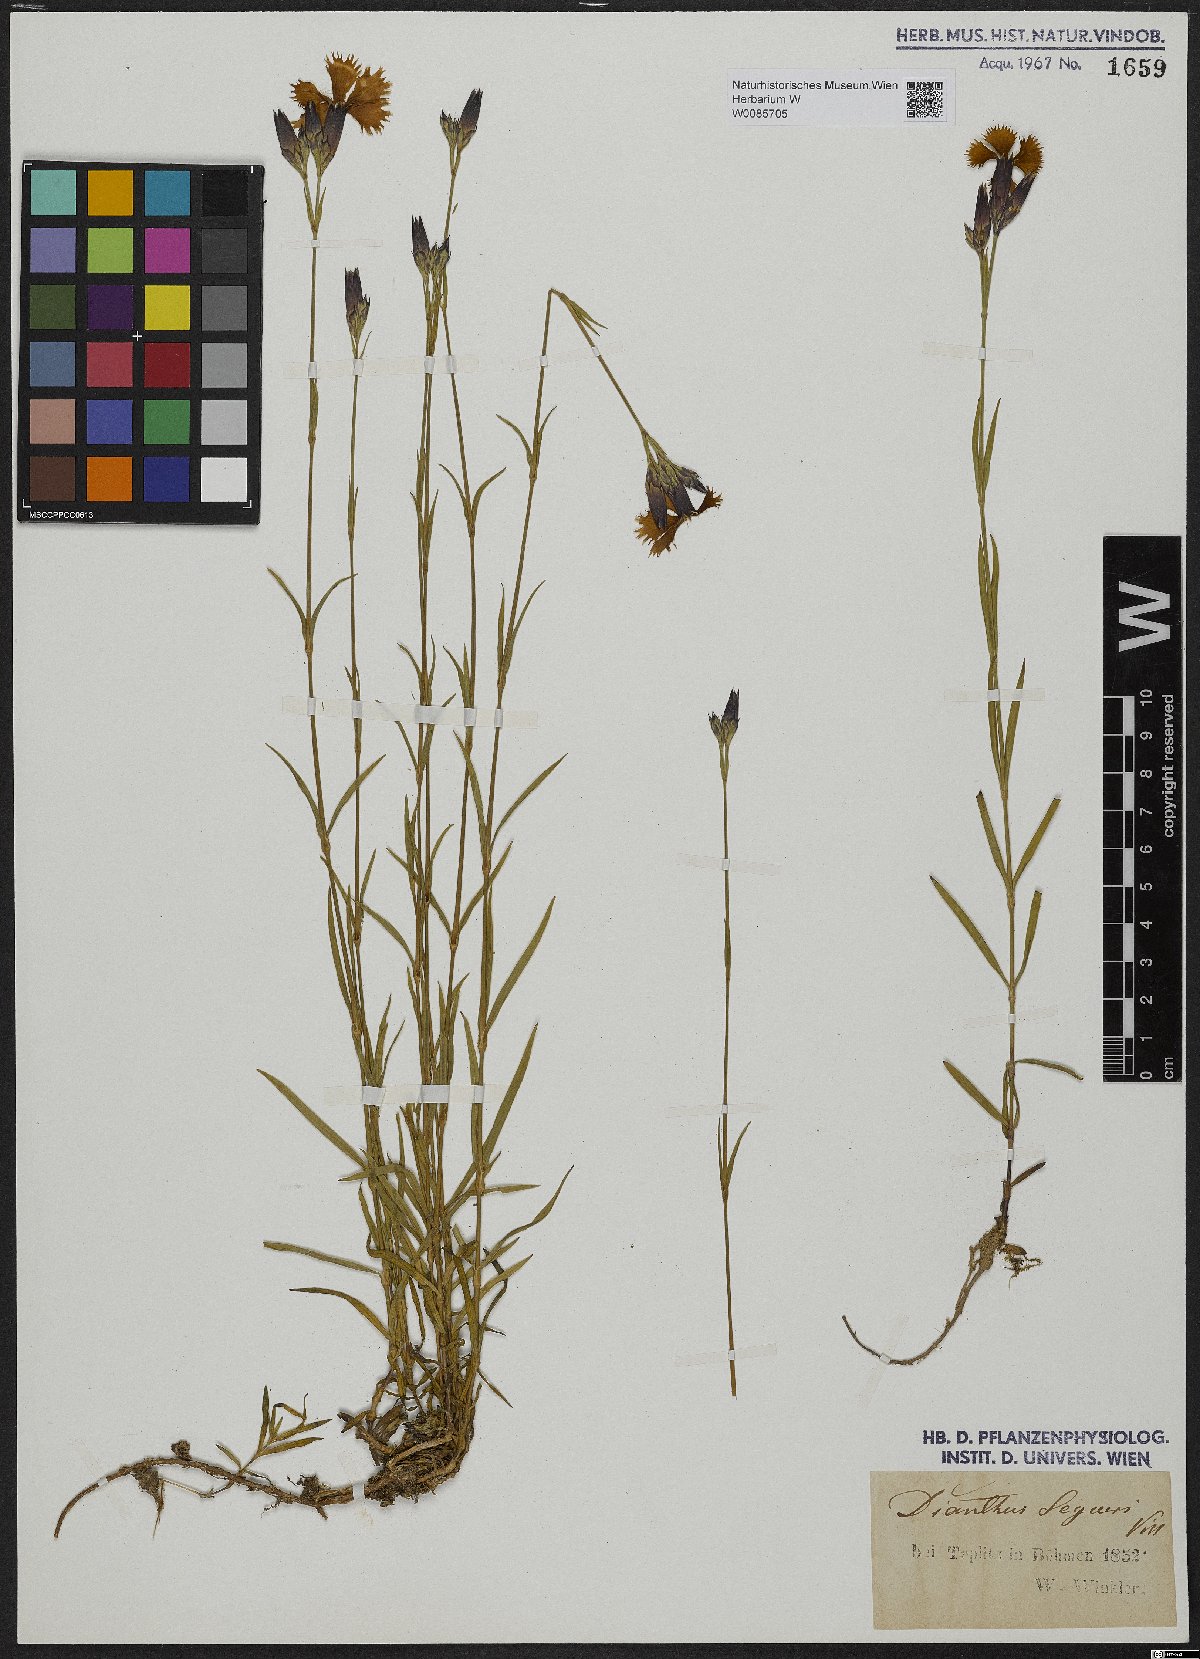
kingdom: Plantae
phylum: Tracheophyta
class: Magnoliopsida
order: Caryophyllales
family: Caryophyllaceae
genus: Dianthus
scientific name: Dianthus seguieri
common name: Ragged pink
